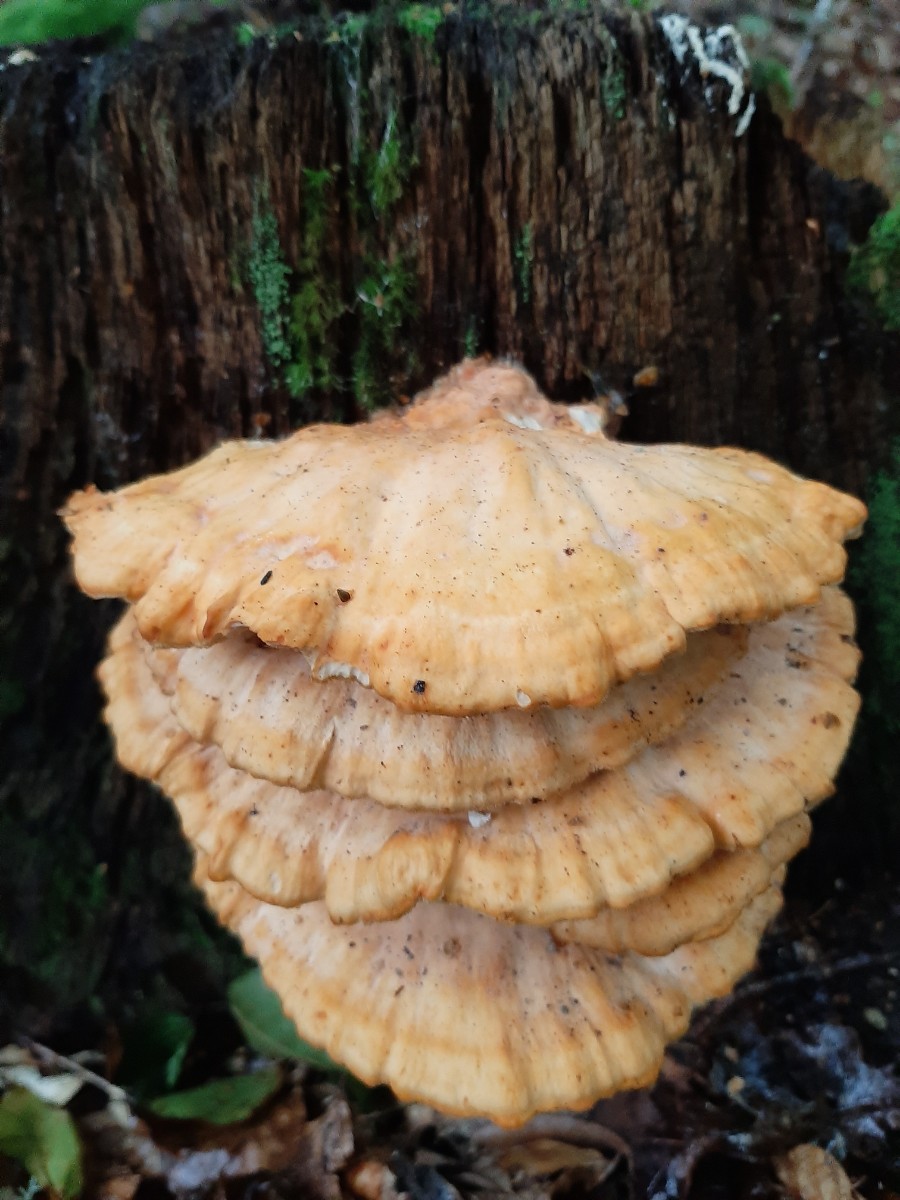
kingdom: Fungi
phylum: Basidiomycota
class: Agaricomycetes
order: Polyporales
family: Laetiporaceae
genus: Laetiporus
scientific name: Laetiporus sulphureus
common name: svovlporesvamp
